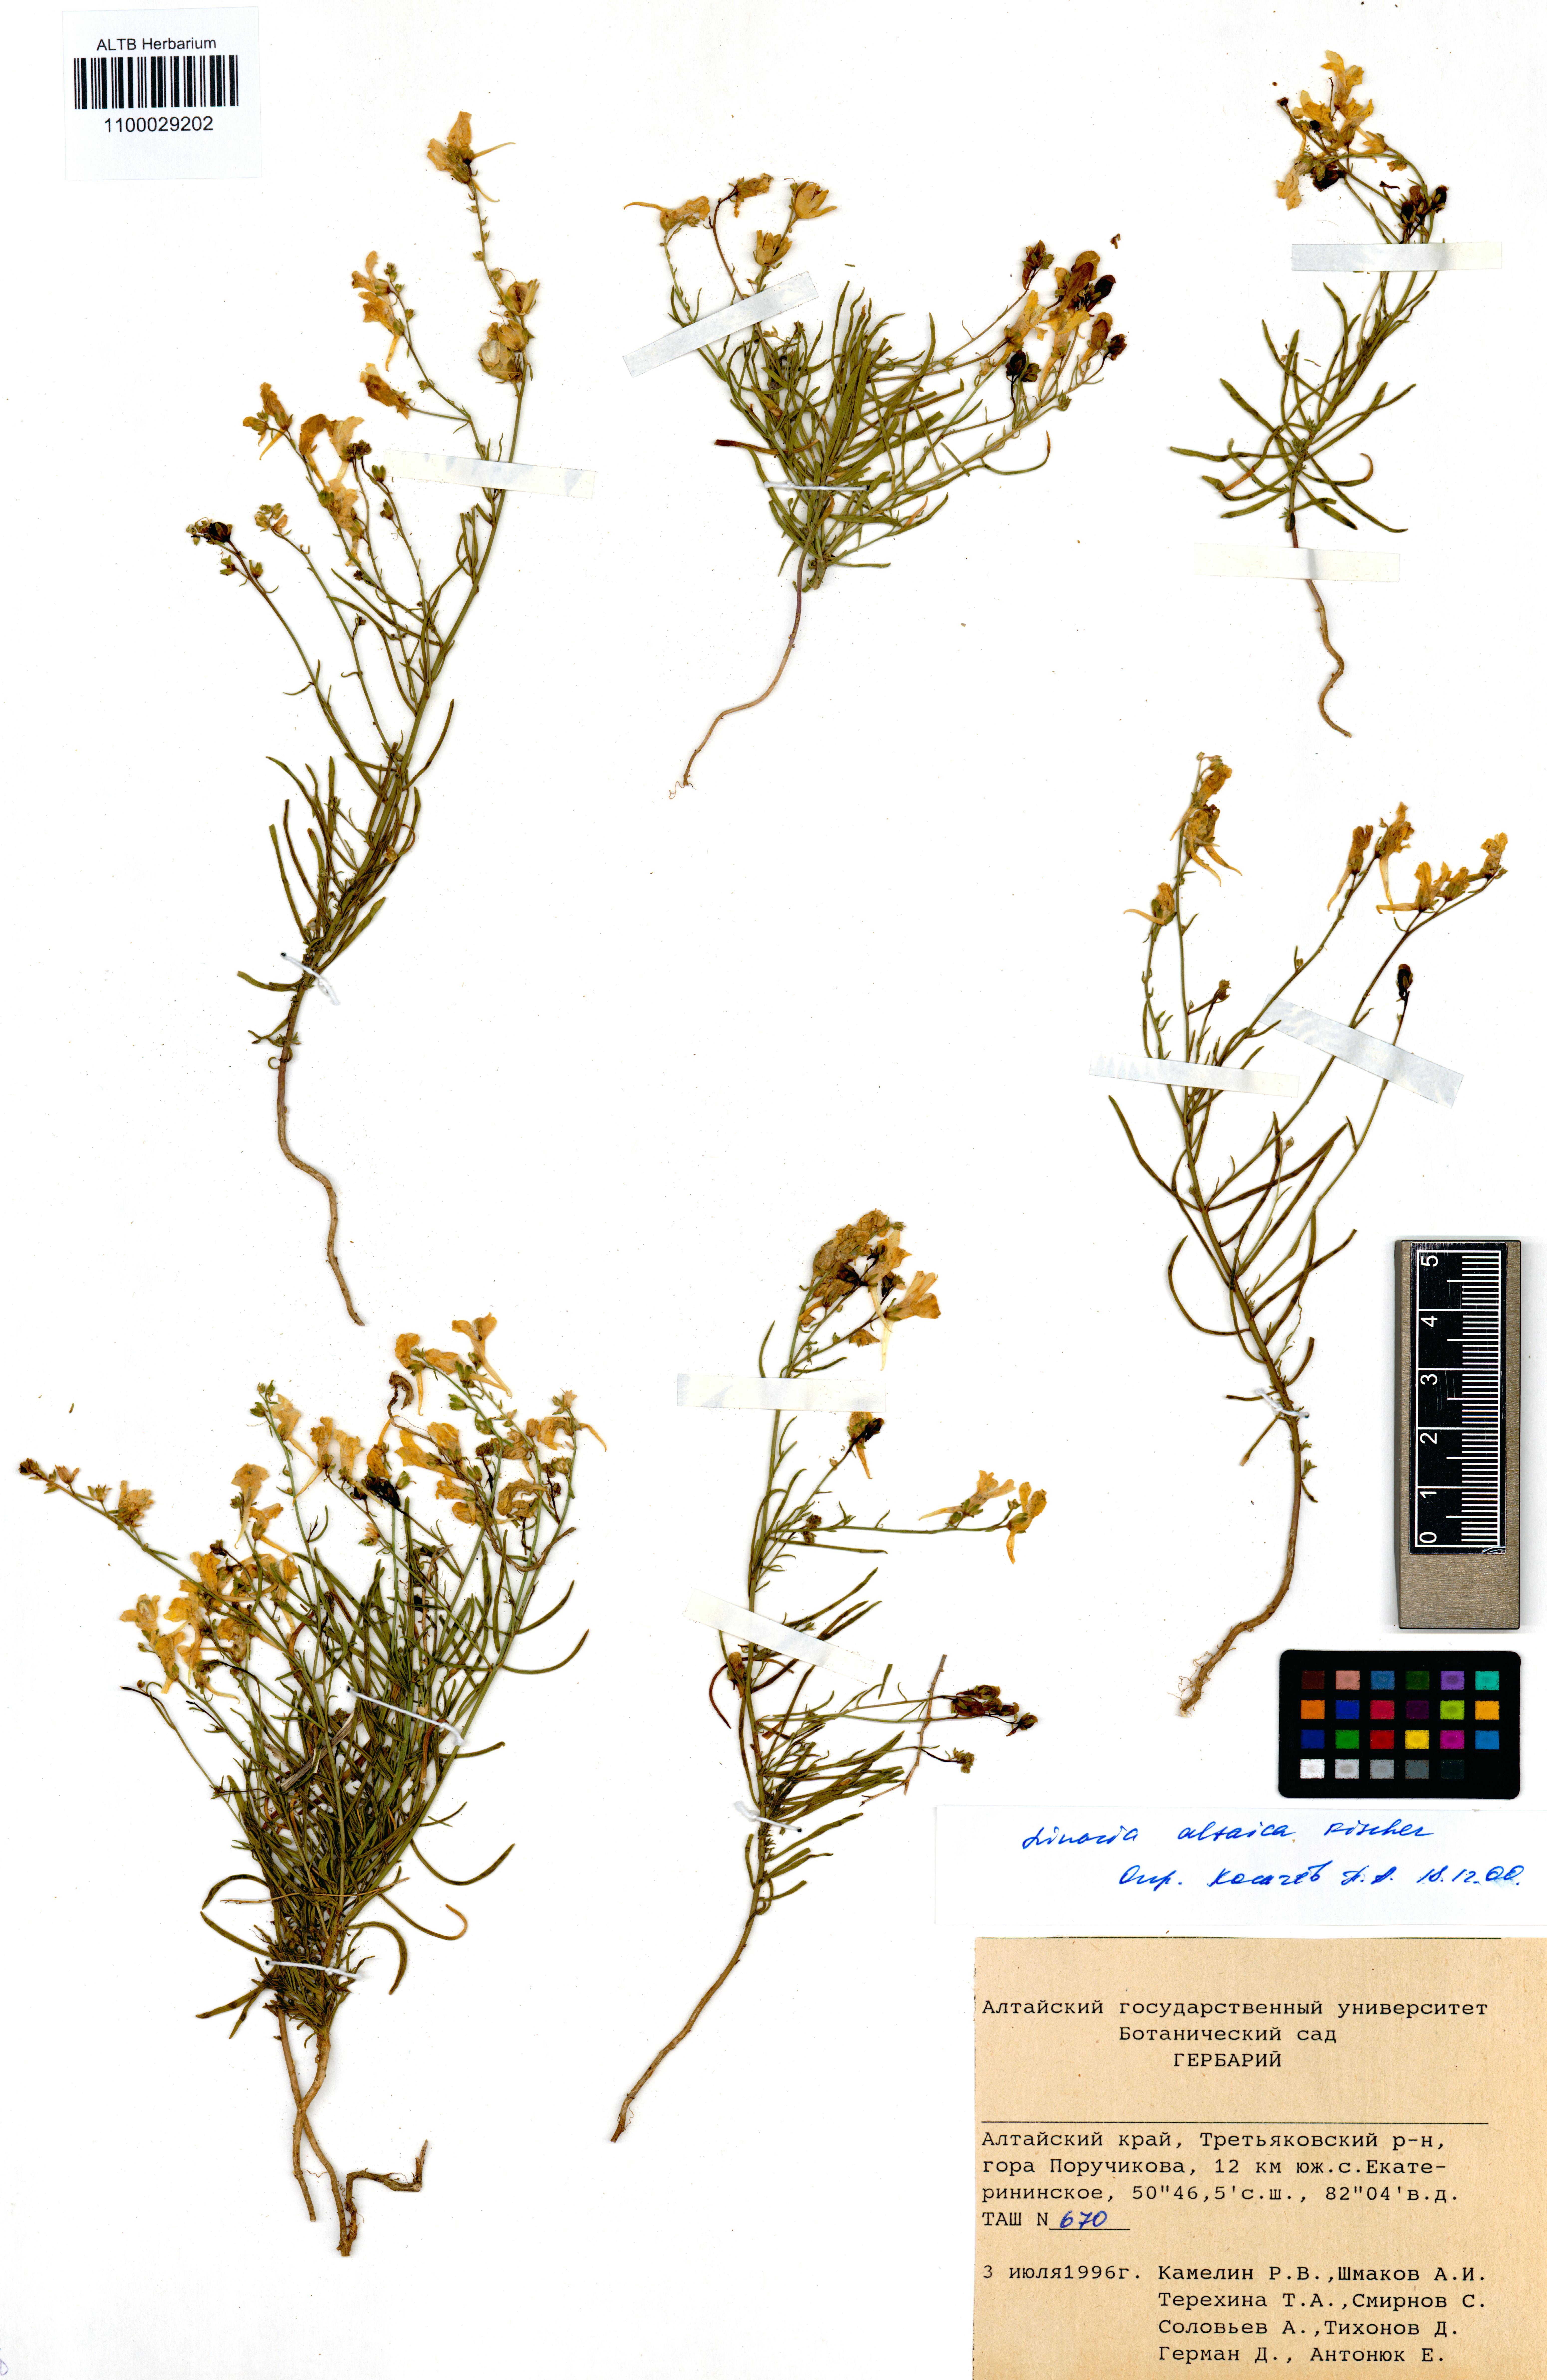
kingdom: Plantae
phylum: Tracheophyta
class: Magnoliopsida
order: Lamiales
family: Plantaginaceae
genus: Linaria
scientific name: Linaria altaica
